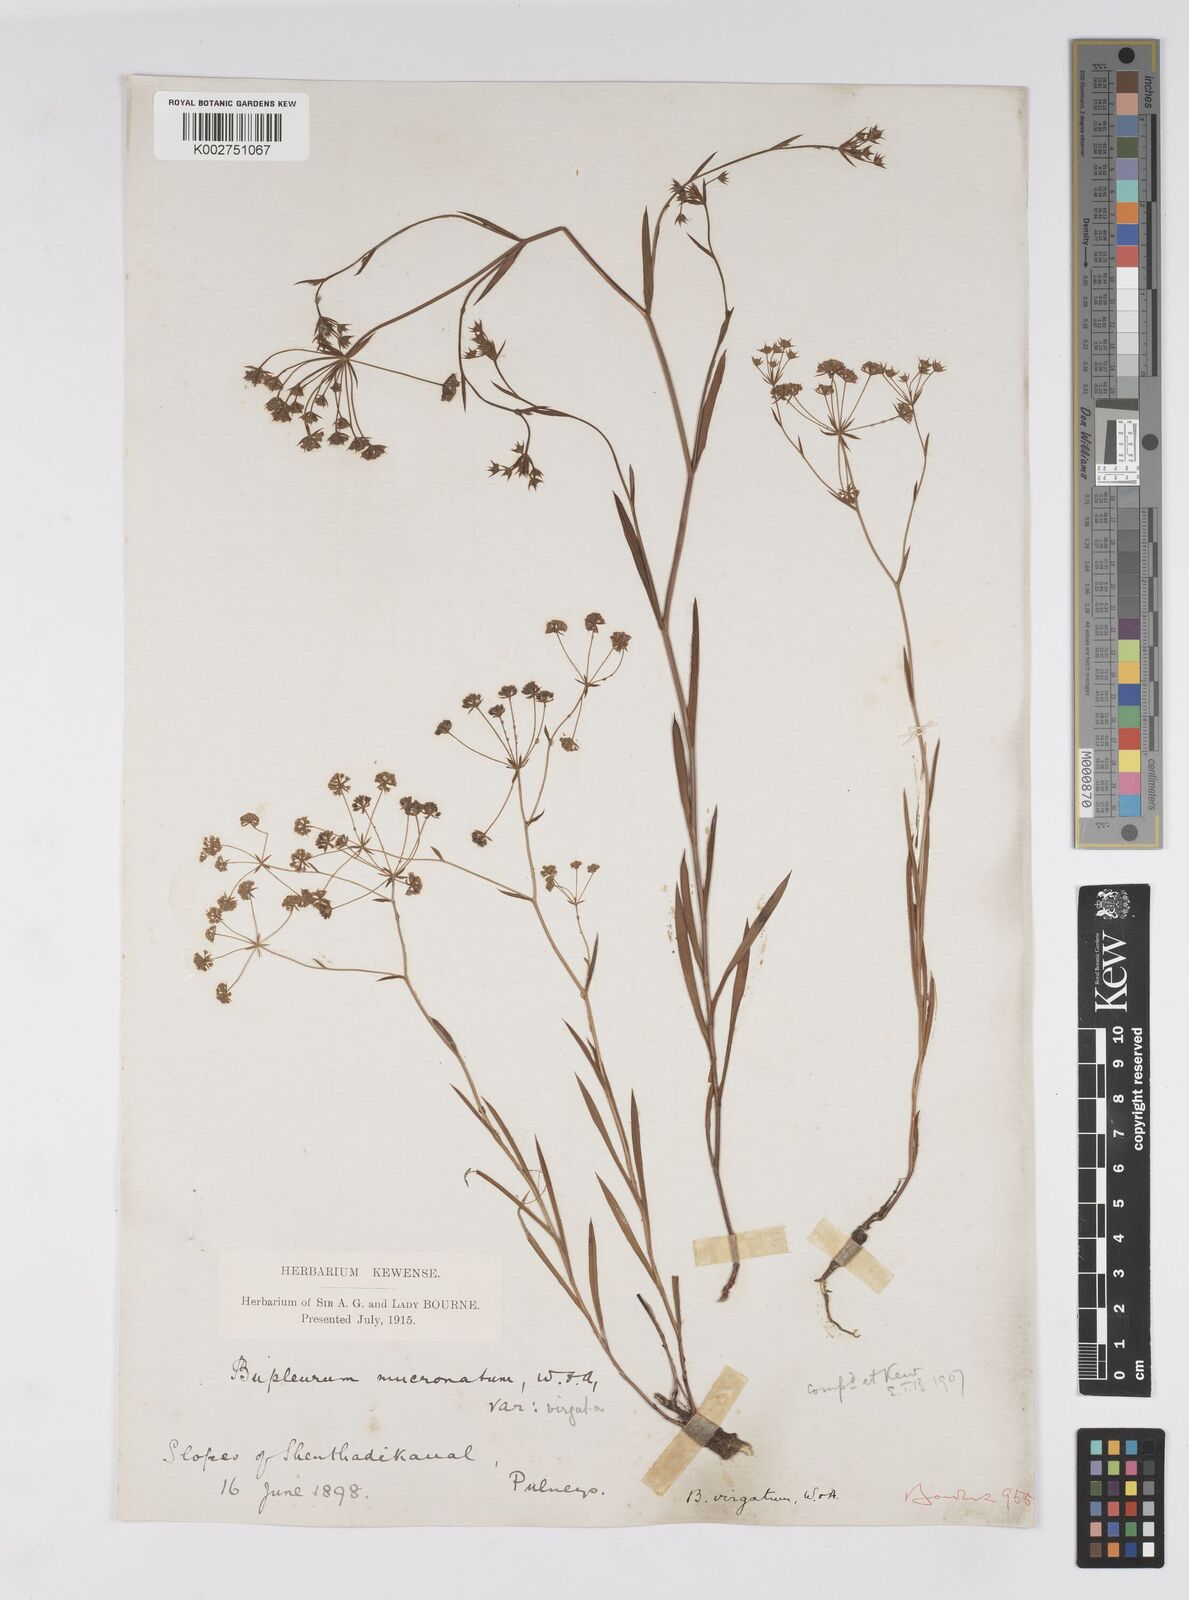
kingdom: Plantae
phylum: Tracheophyta
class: Magnoliopsida
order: Apiales
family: Apiaceae
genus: Bupleurum
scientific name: Bupleurum
